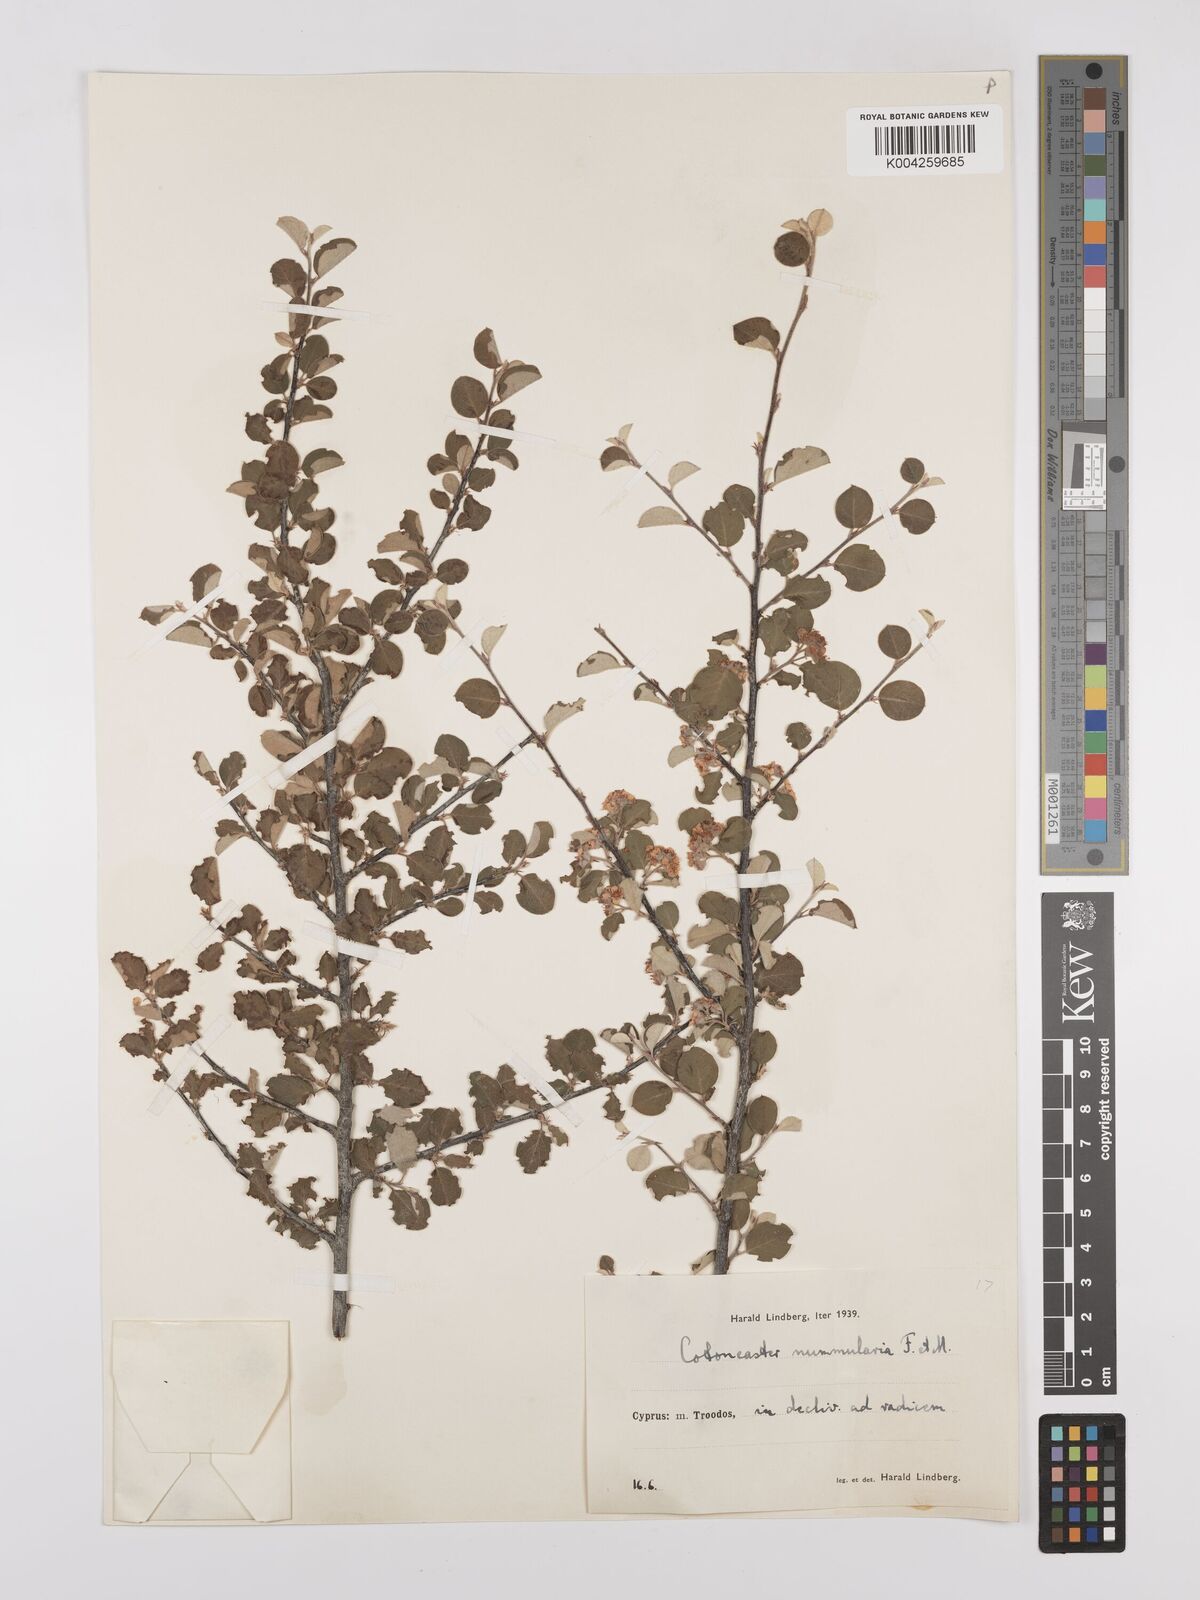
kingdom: Plantae
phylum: Tracheophyta
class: Magnoliopsida
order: Rosales
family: Rosaceae
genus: Cotoneaster
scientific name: Cotoneaster nummularius
